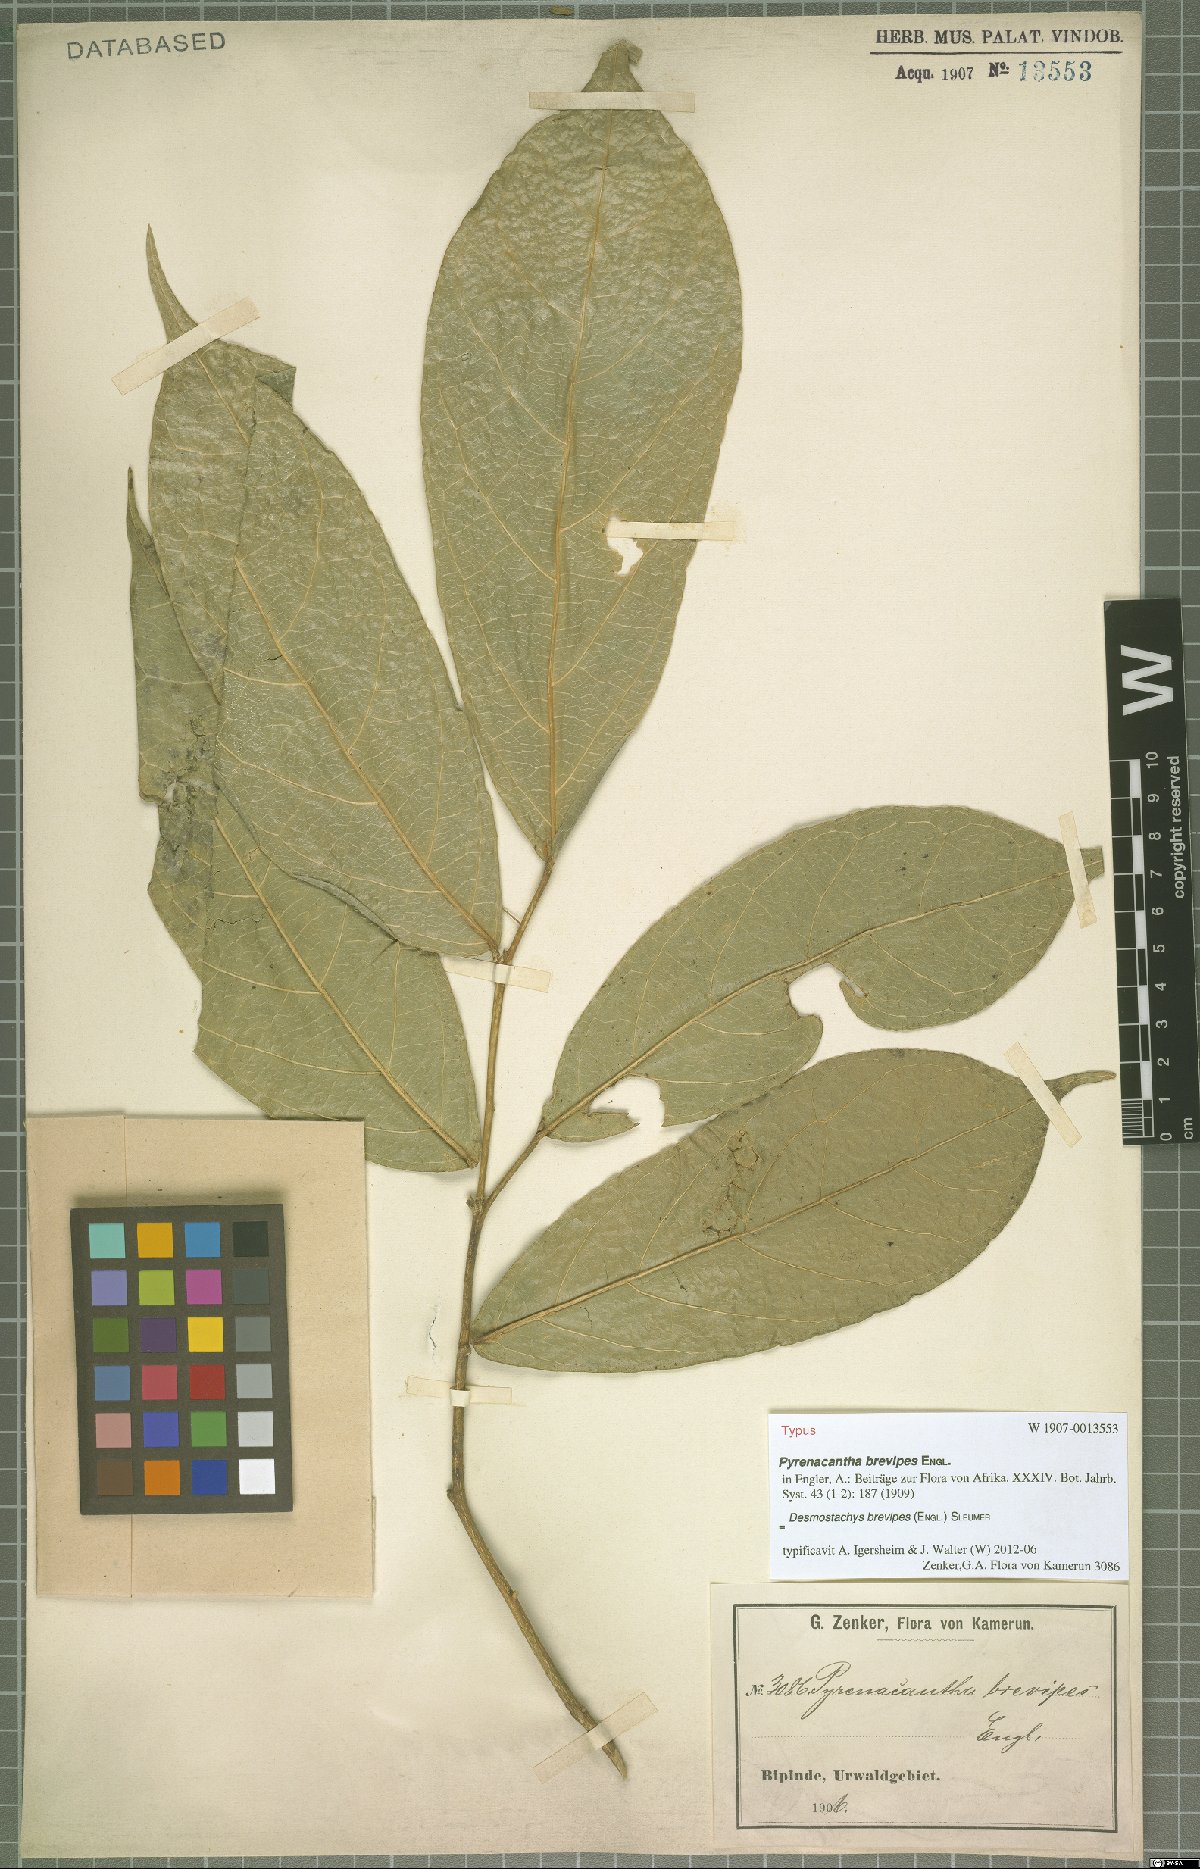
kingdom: Plantae
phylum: Tracheophyta
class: Magnoliopsida
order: Icacinales
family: Icacinaceae
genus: Vadensea
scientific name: Vadensea oblongifolia
